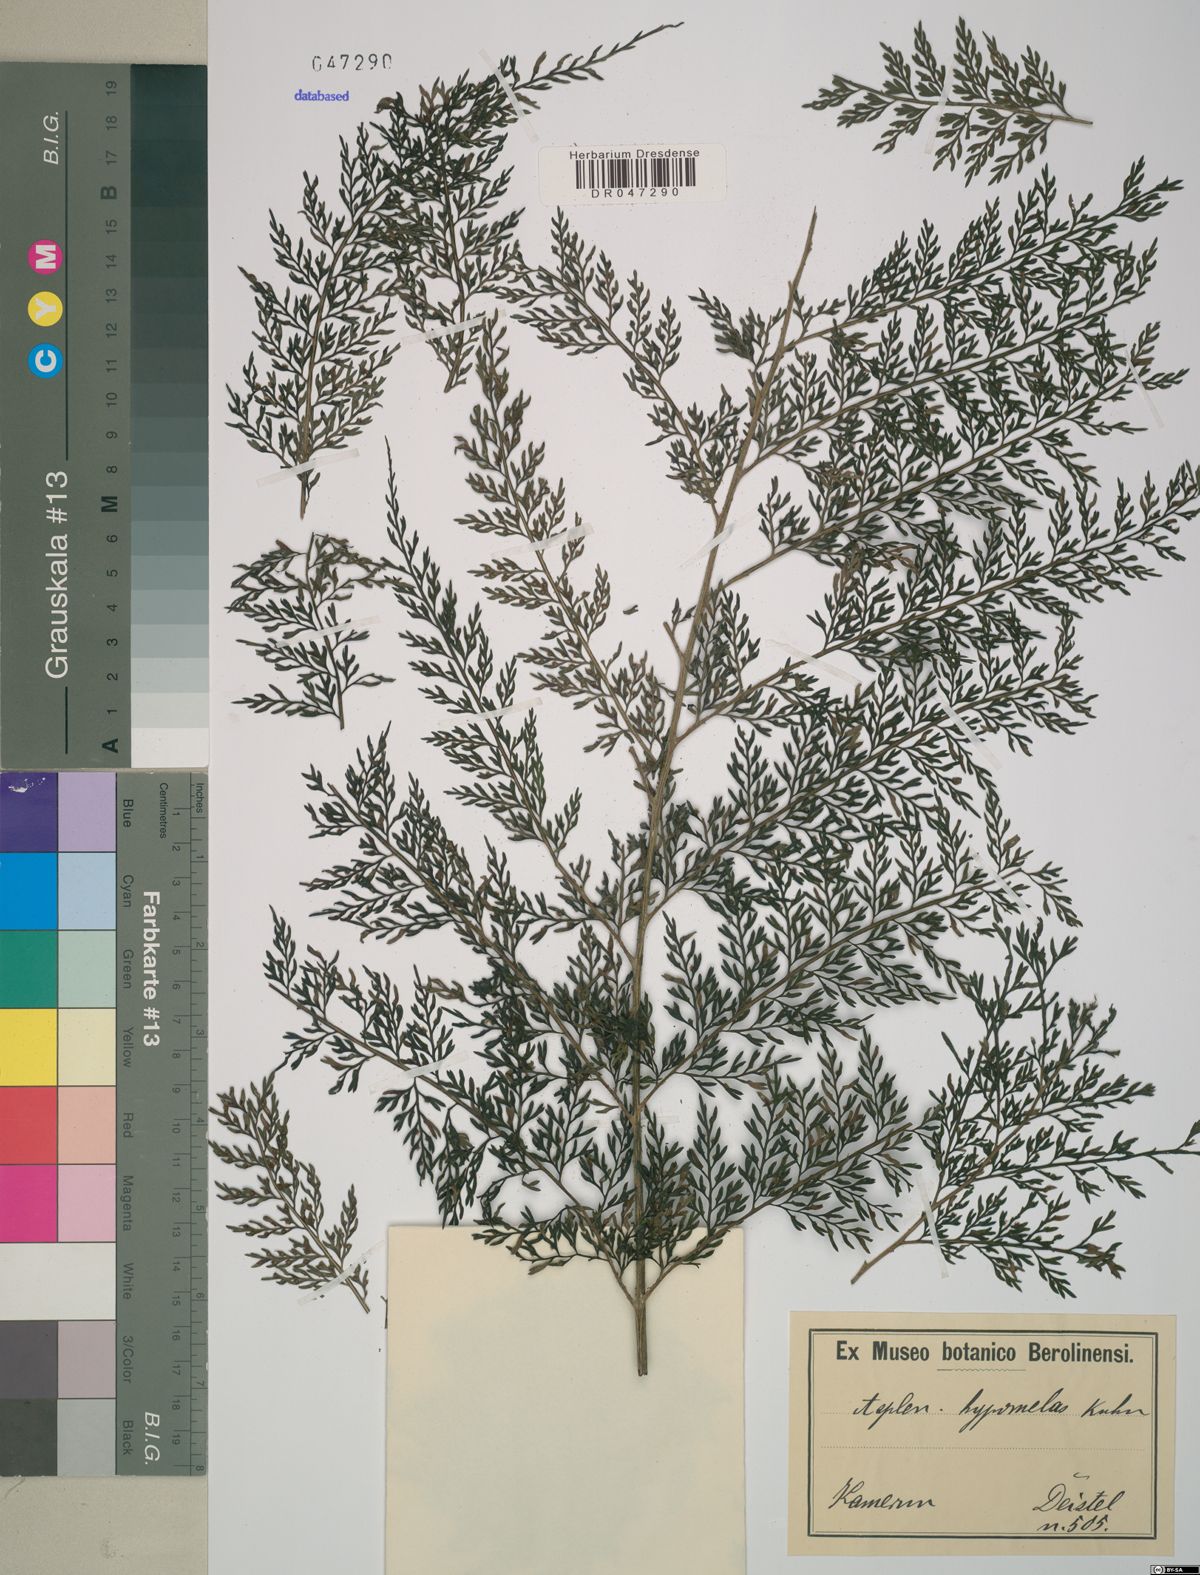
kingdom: Plantae
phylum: Tracheophyta
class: Polypodiopsida
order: Polypodiales
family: Aspleniaceae
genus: Asplenium
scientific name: Asplenium hypomelas
